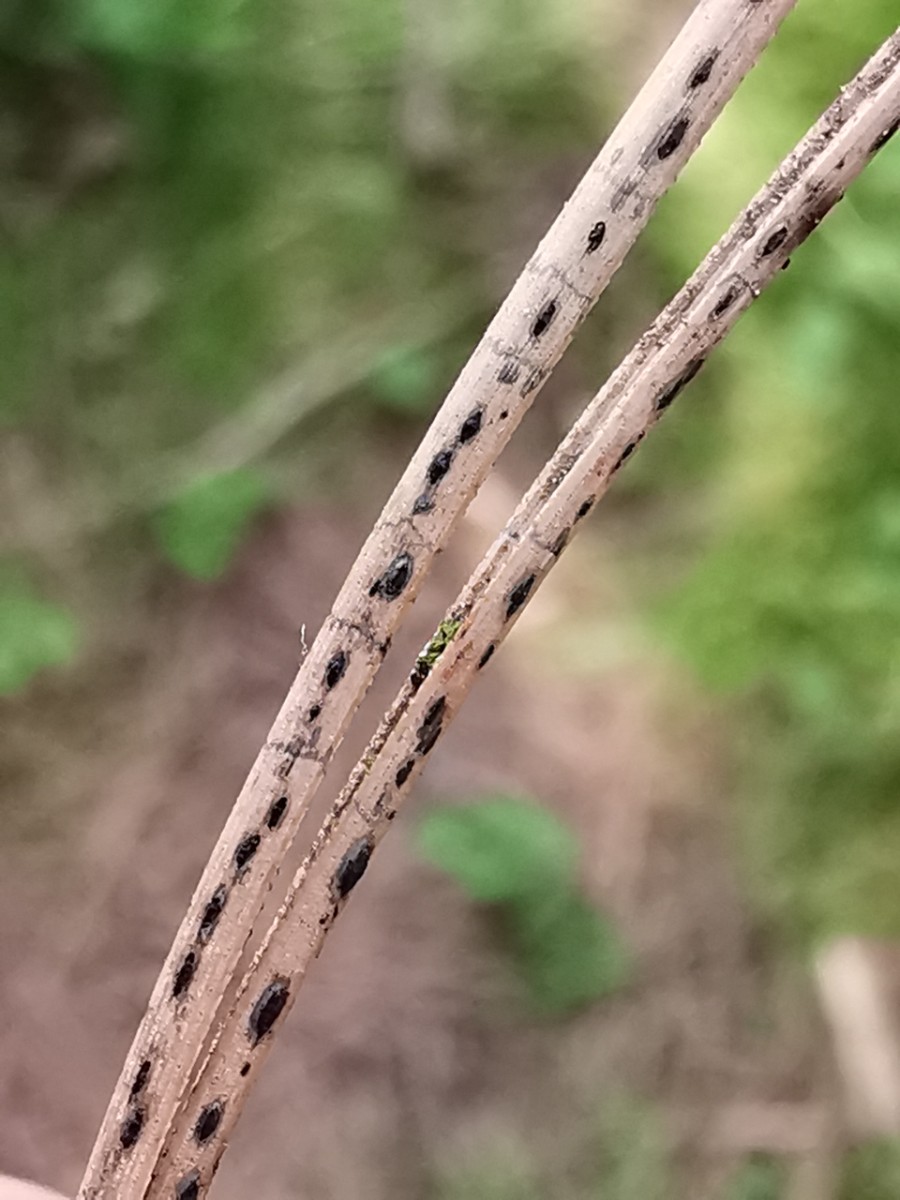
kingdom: Fungi
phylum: Ascomycota
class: Leotiomycetes
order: Rhytismatales
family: Rhytismataceae
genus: Lophodermium
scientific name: Lophodermium pinastri
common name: fyrre-fureplet
